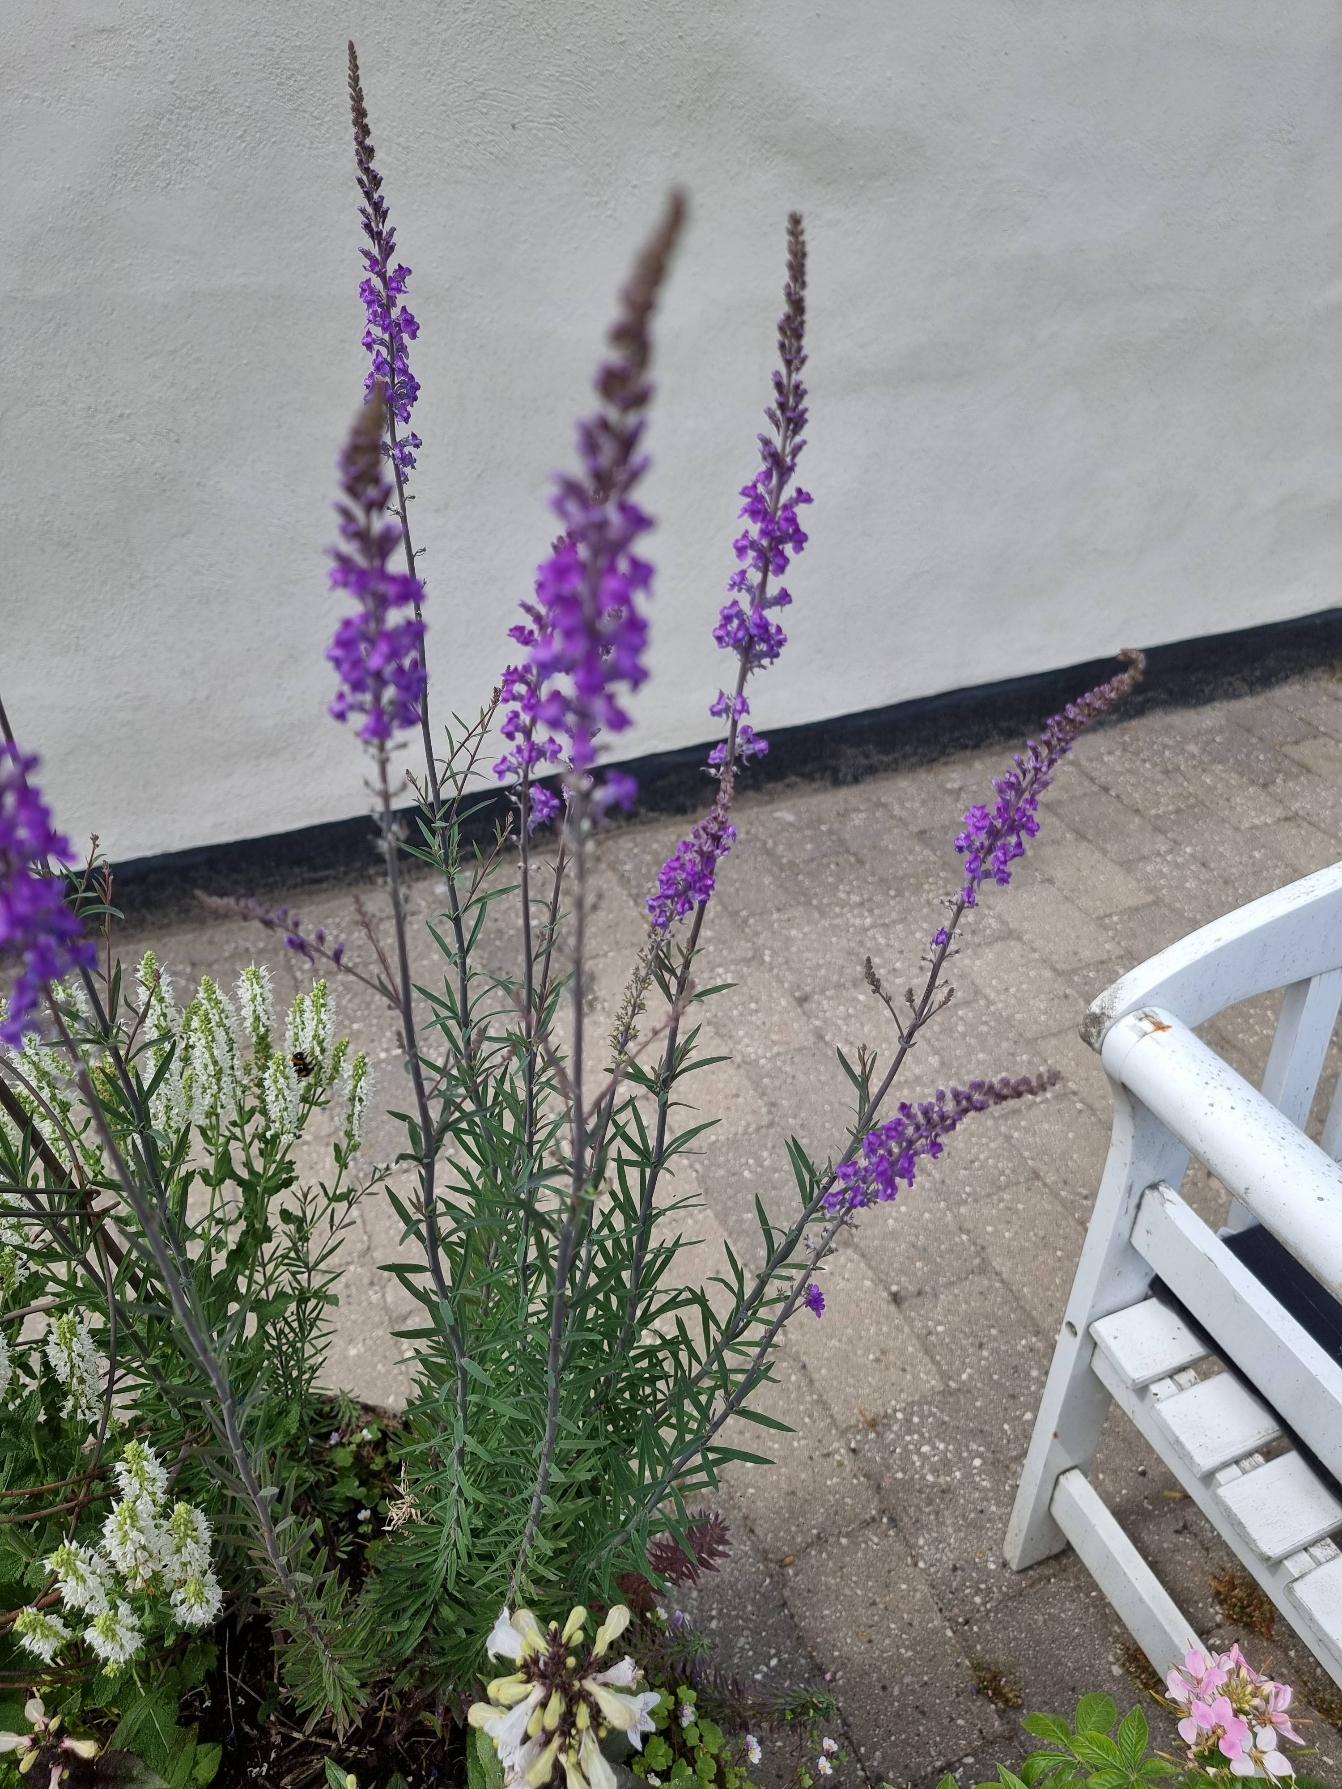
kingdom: Plantae
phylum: Tracheophyta
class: Magnoliopsida
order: Lamiales
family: Plantaginaceae
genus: Linaria
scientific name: Linaria purpurea
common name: Purpur-torskemund
